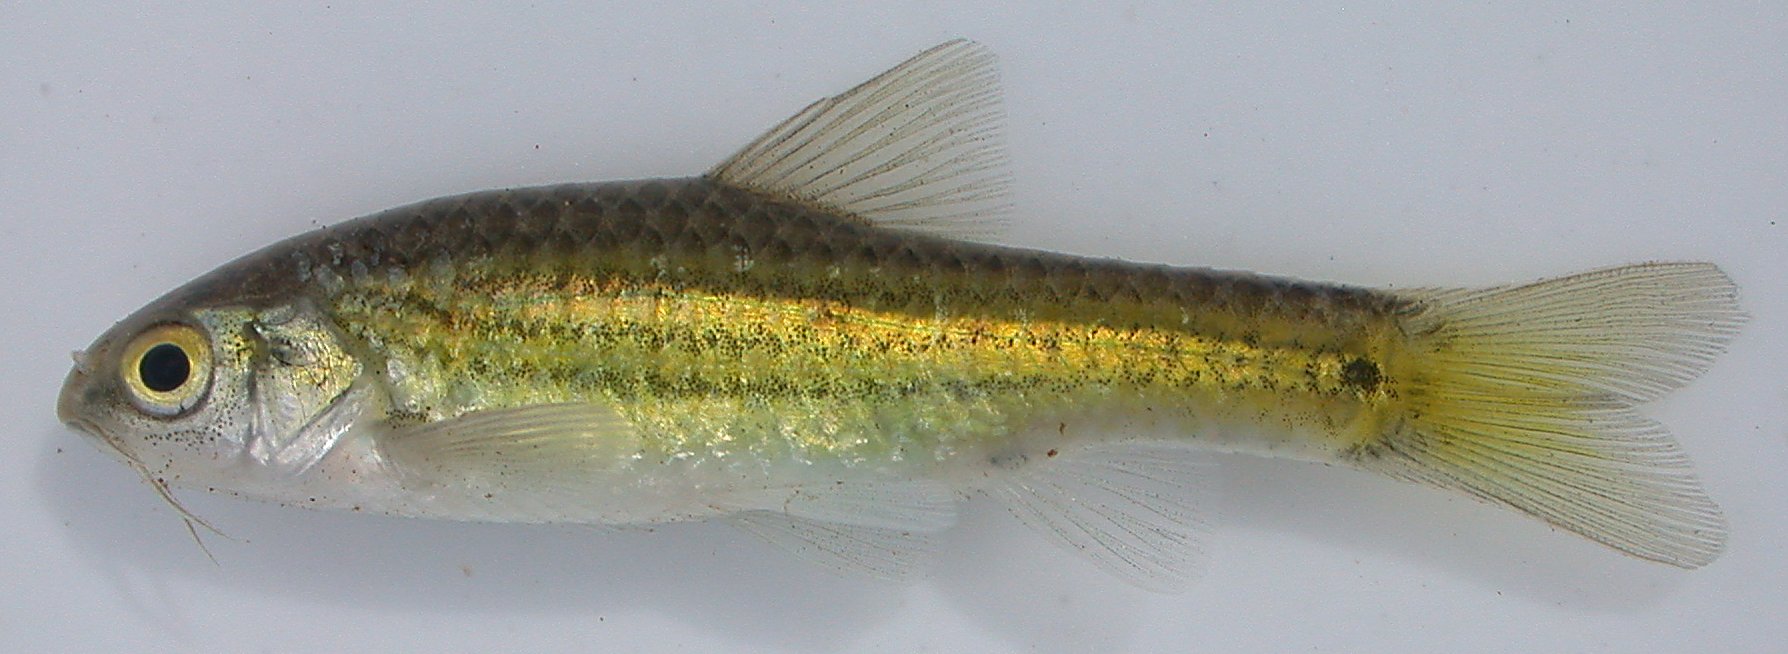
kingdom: Animalia
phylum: Chordata
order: Cypriniformes
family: Cyprinidae
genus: Enteromius
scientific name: Enteromius neefi
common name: Sidespot barb
